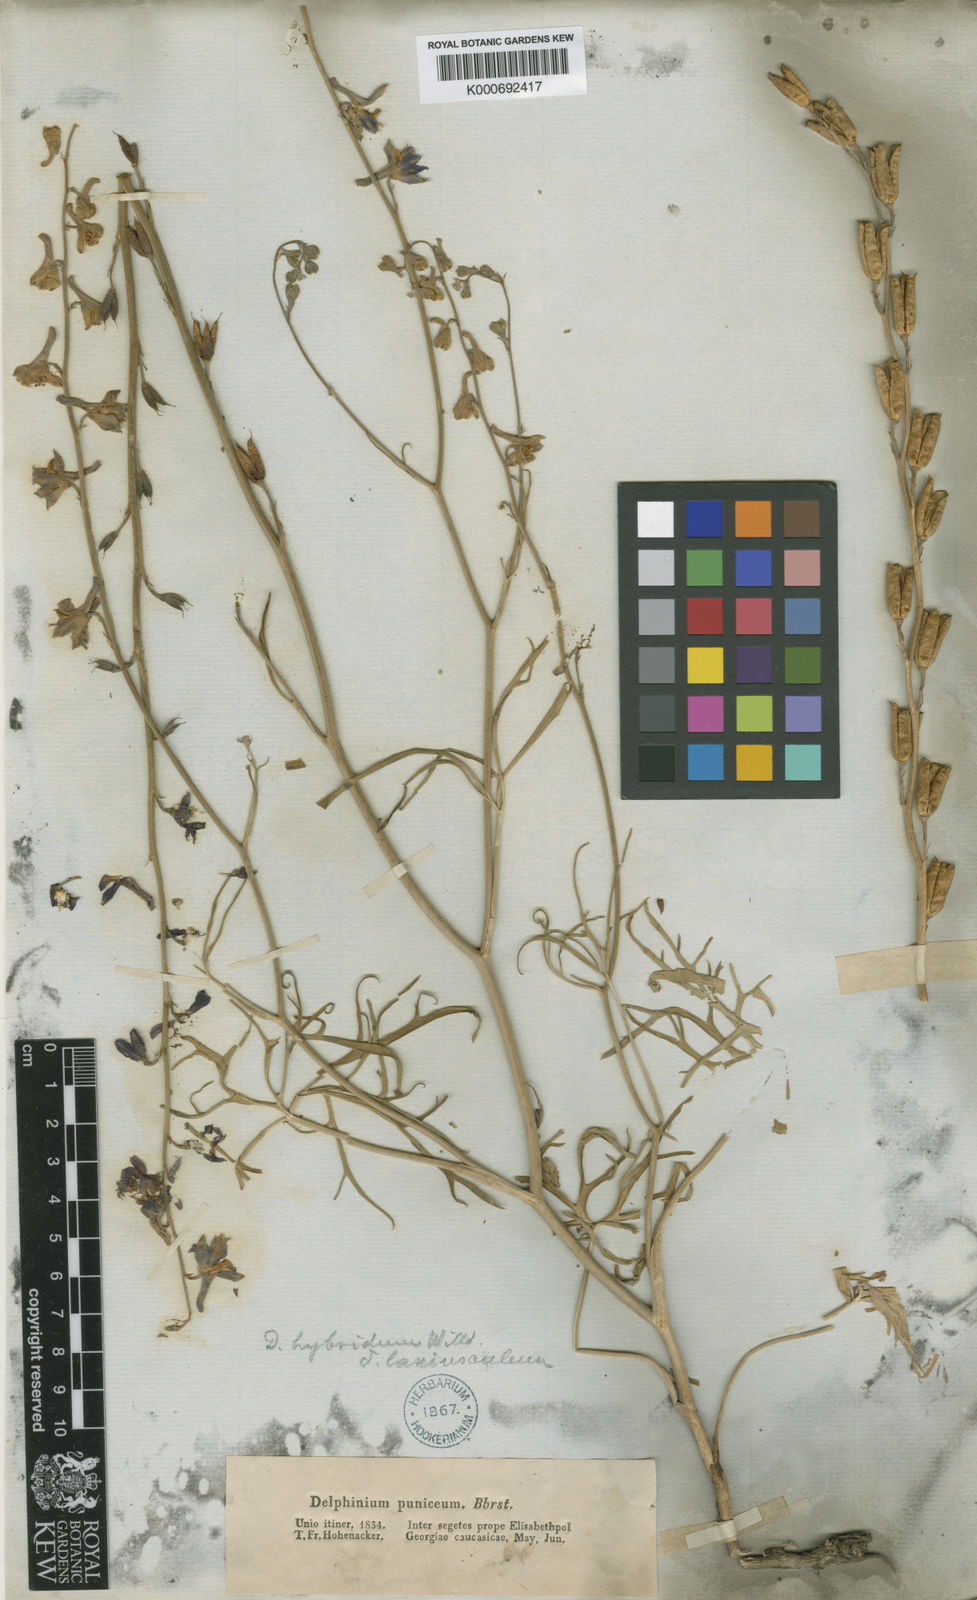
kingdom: Plantae
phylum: Tracheophyta
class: Magnoliopsida
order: Ranunculales
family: Ranunculaceae
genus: Delphinium
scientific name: Delphinium
